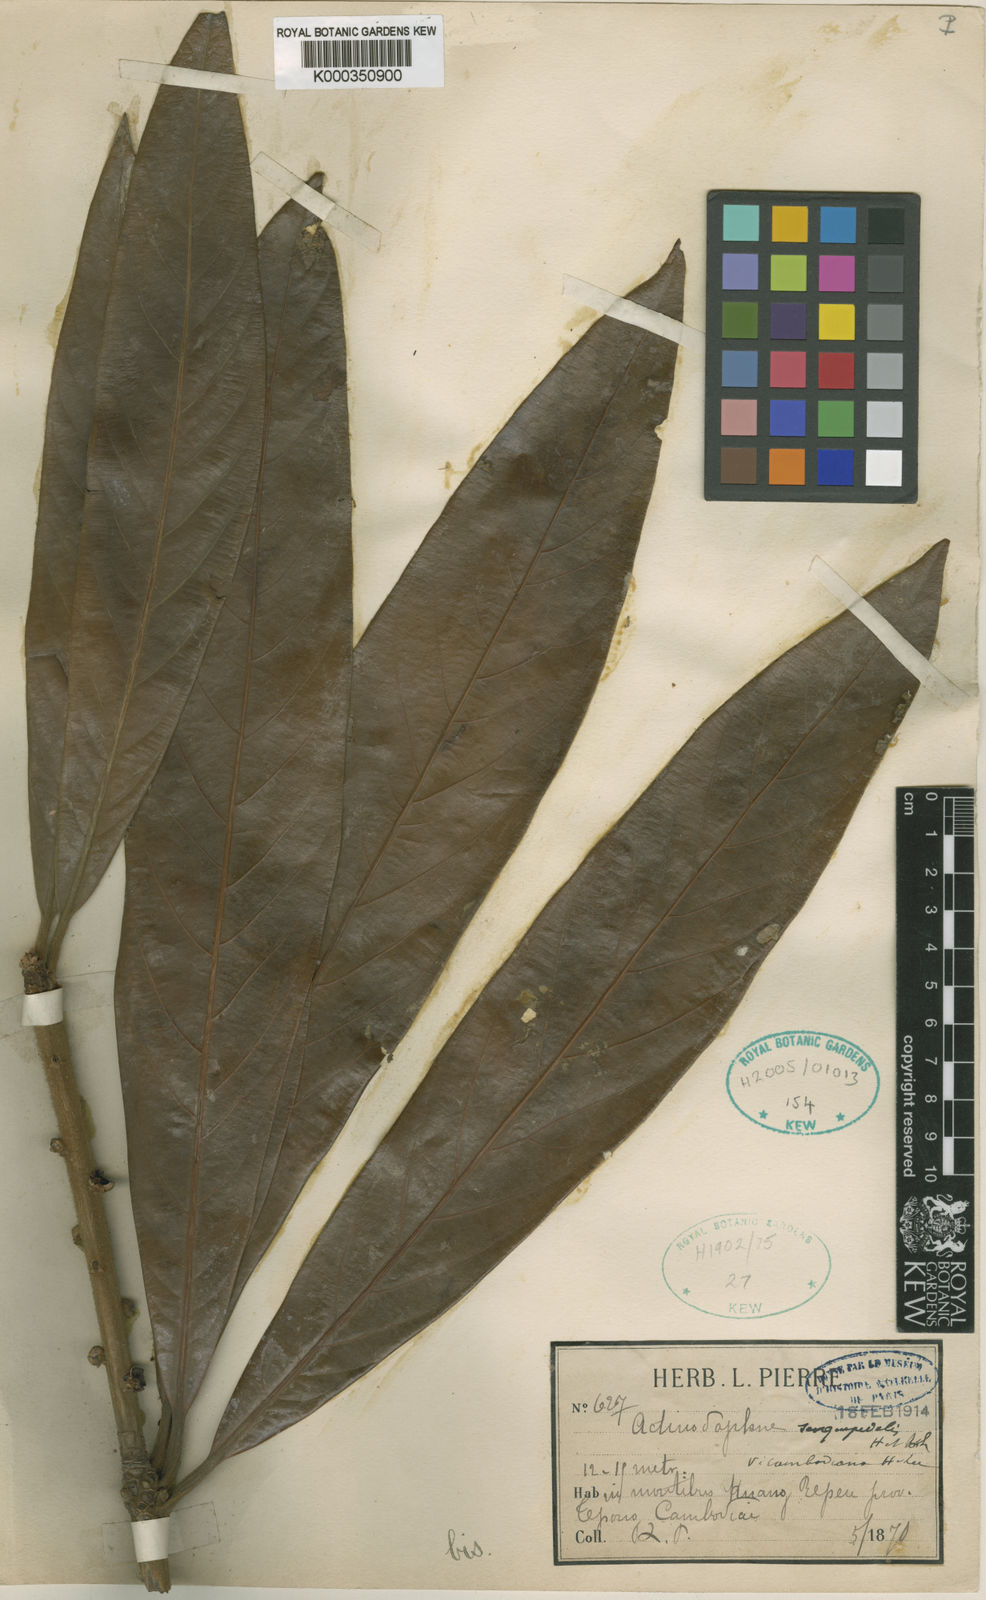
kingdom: Plantae
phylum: Tracheophyta
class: Magnoliopsida
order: Laurales
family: Lauraceae
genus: Actinodaphne
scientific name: Actinodaphne sesquipedalis
